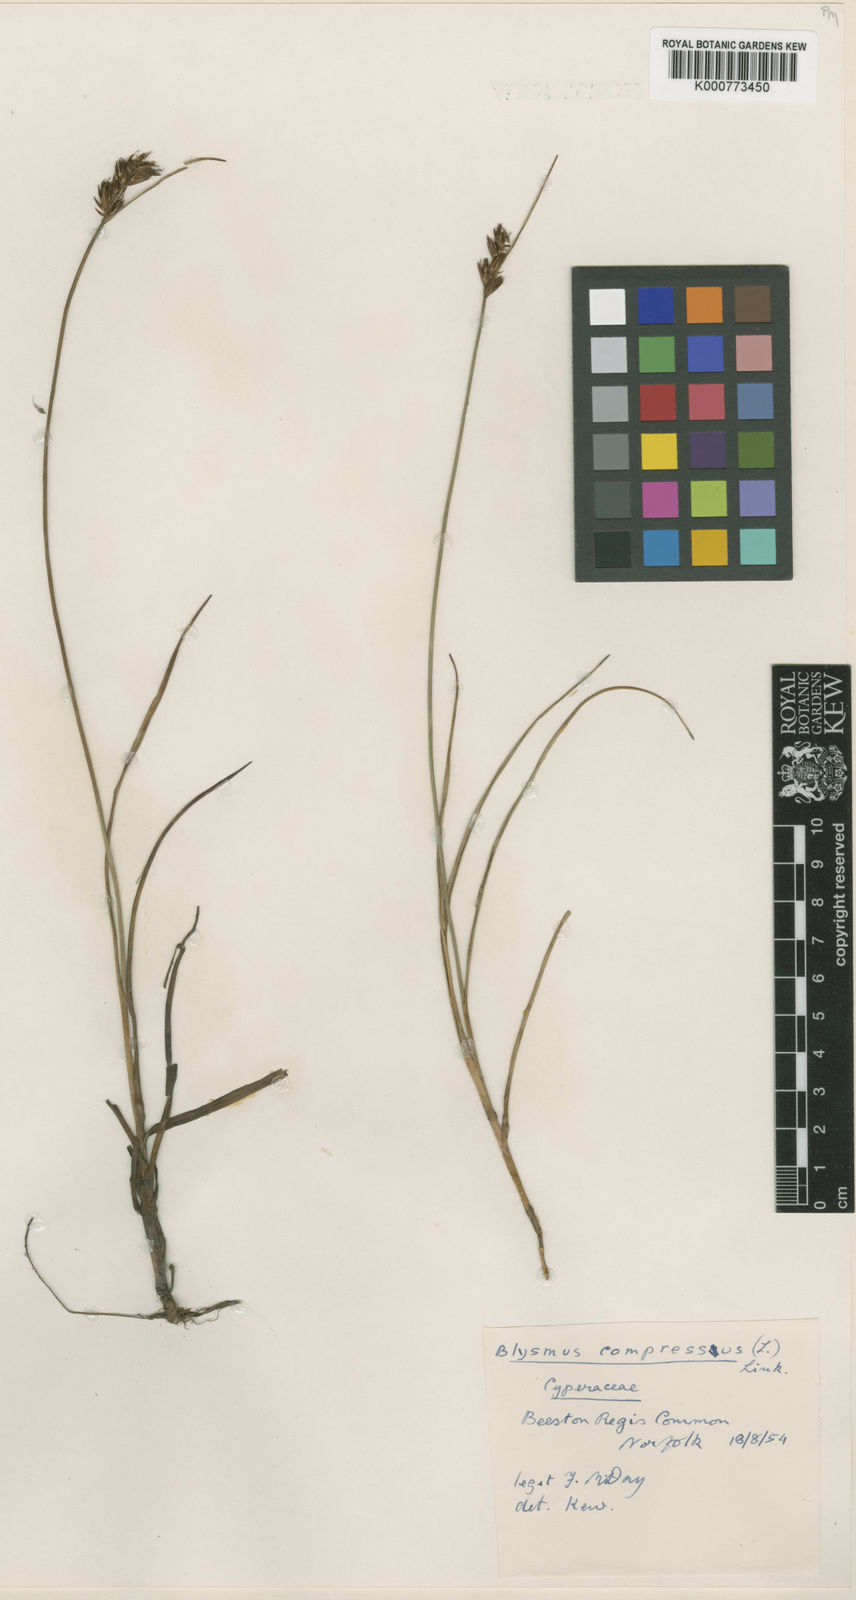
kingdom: Plantae
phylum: Tracheophyta
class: Liliopsida
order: Poales
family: Cyperaceae
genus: Blysmus
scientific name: Blysmus compressus
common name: Flat-sedge
